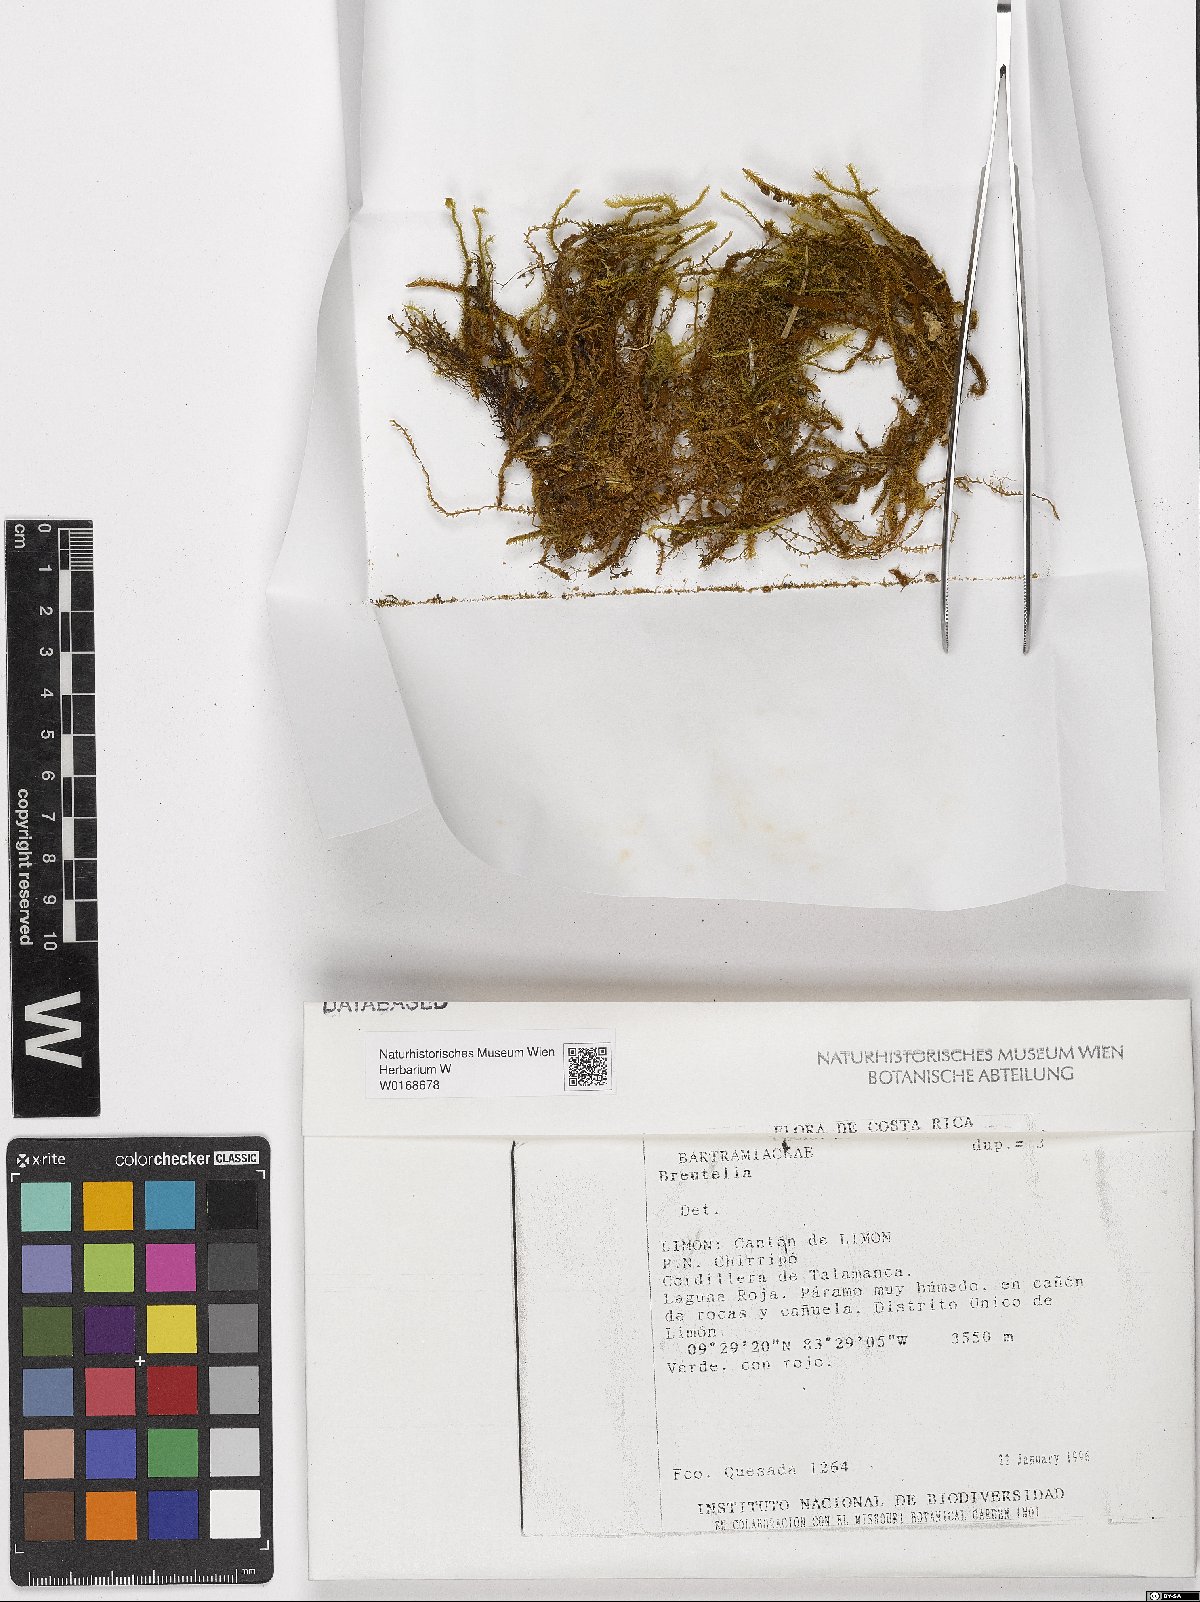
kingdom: Plantae
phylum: Bryophyta
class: Bryopsida
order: Bartramiales
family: Bartramiaceae
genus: Breutelia
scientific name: Breutelia
